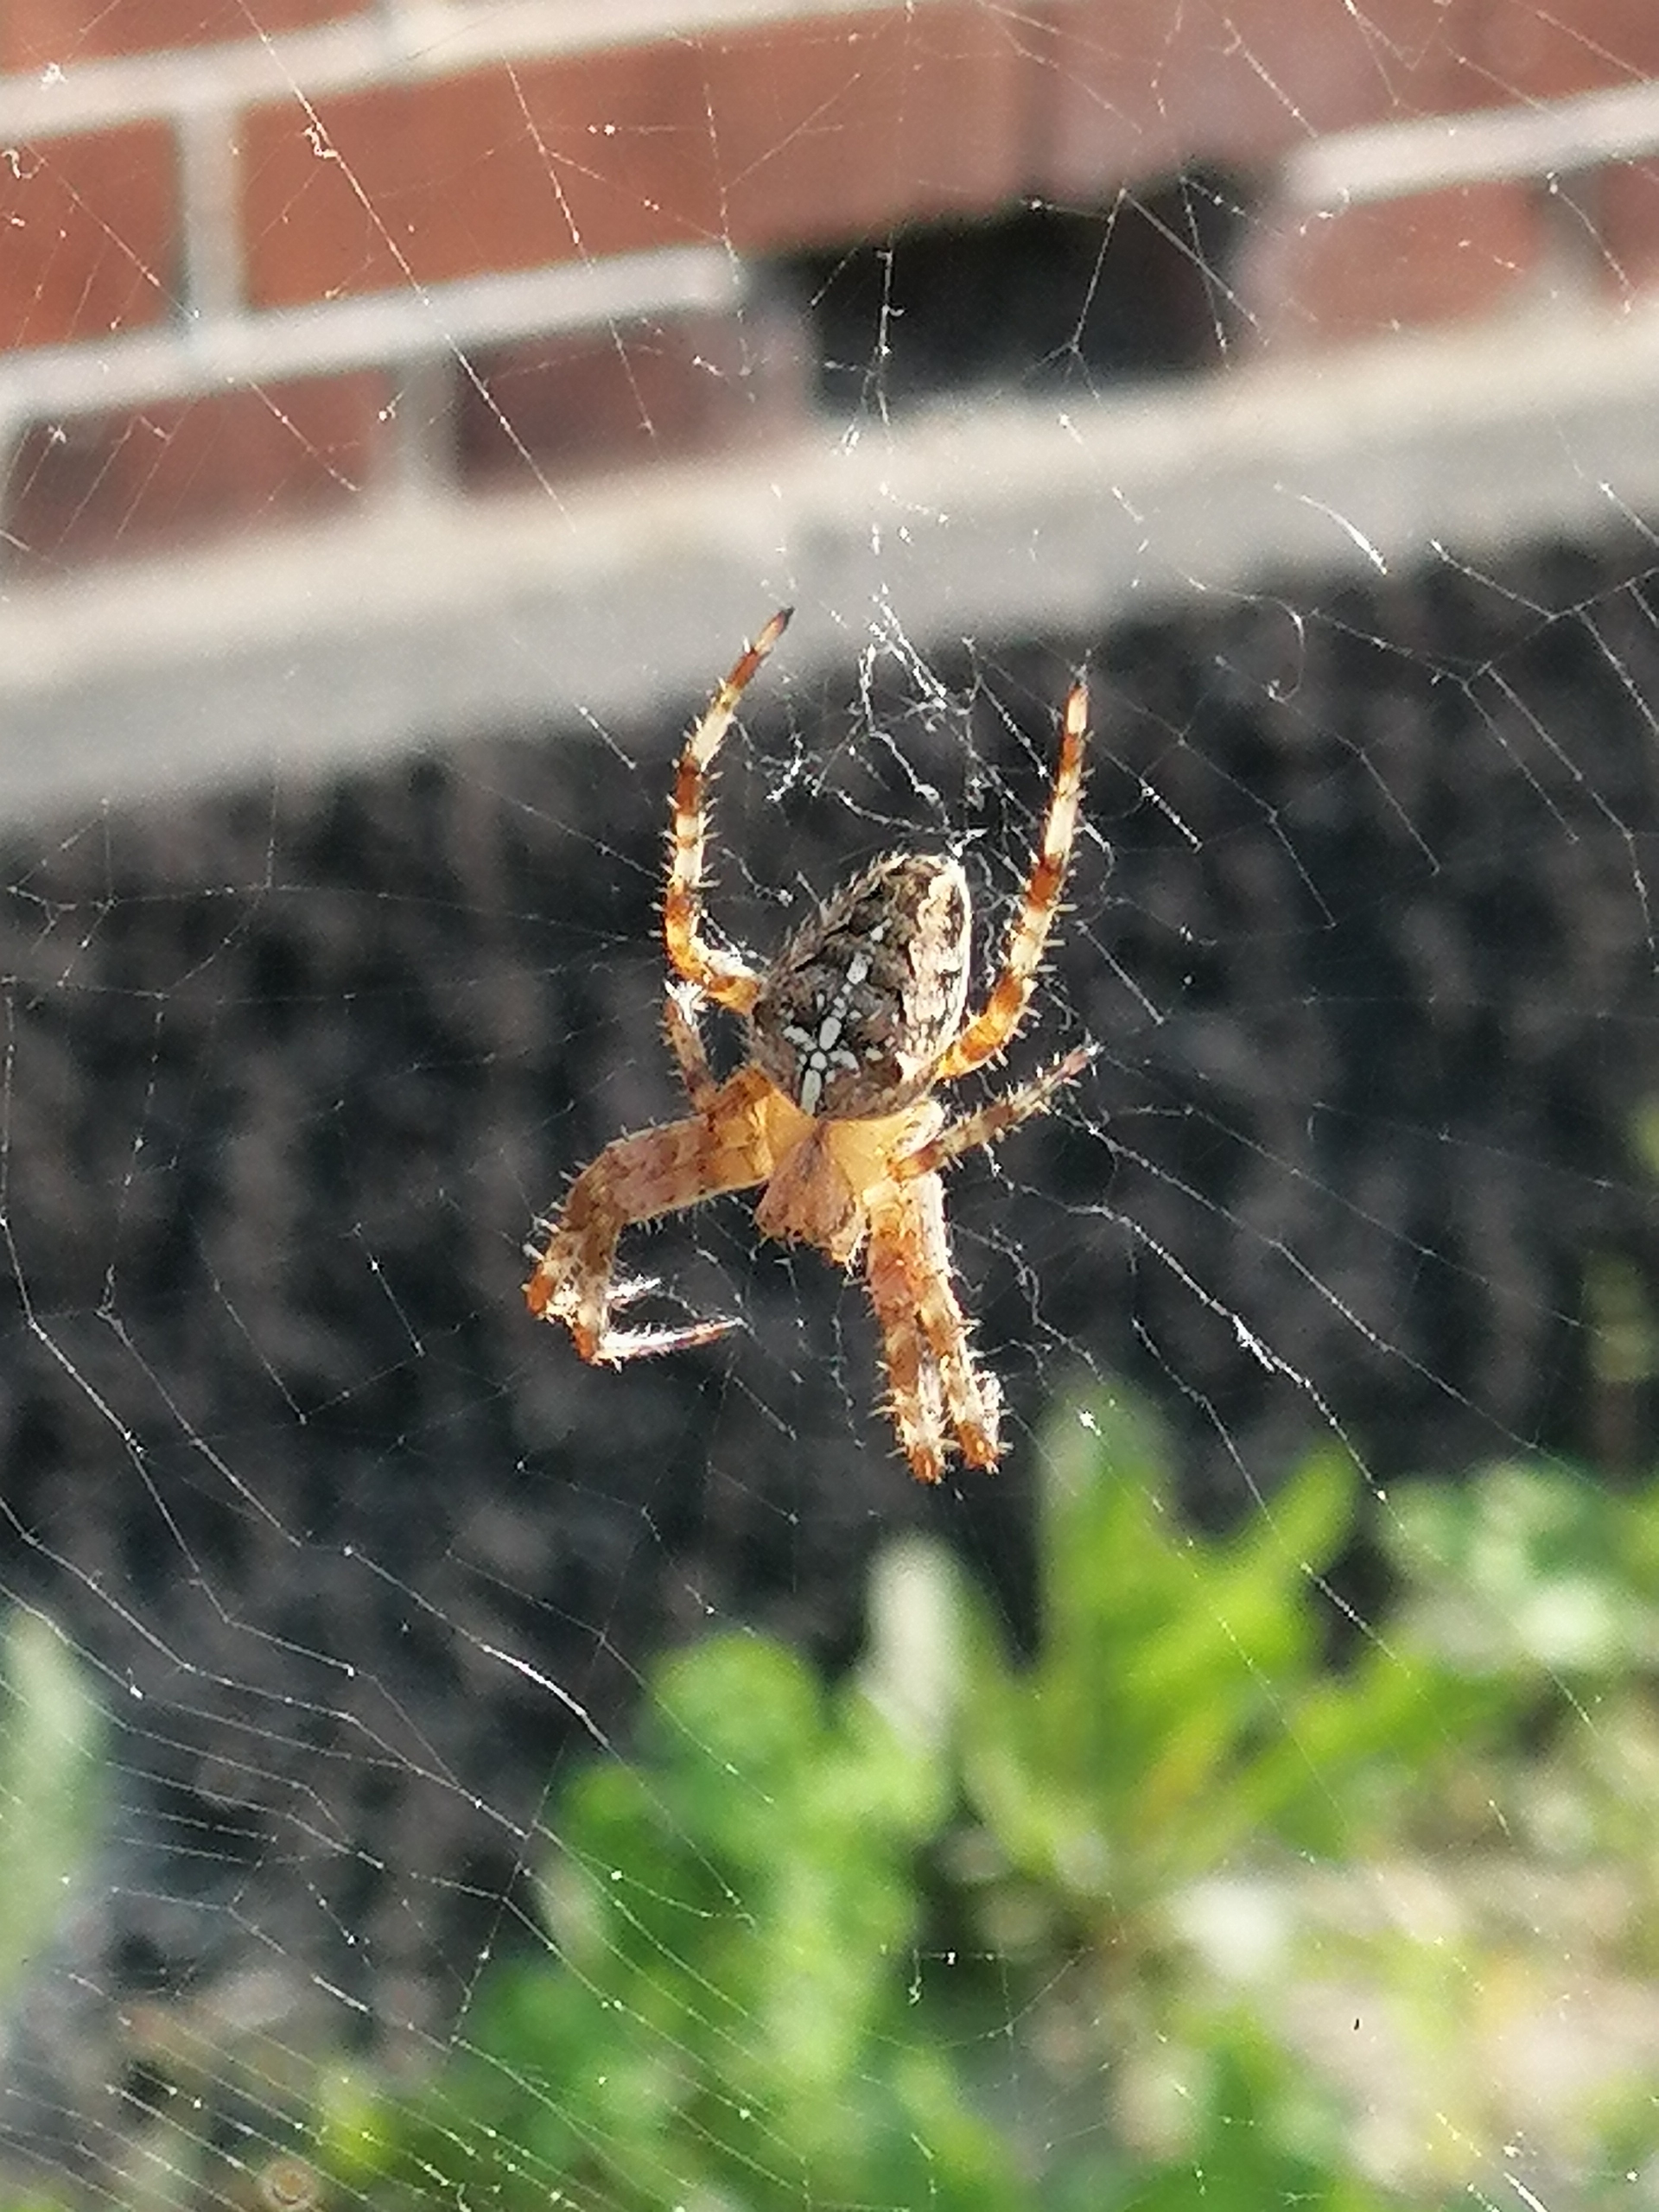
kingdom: Animalia
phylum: Arthropoda
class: Arachnida
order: Araneae
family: Araneidae
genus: Araneus
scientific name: Araneus diadematus
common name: Korsedderkop
